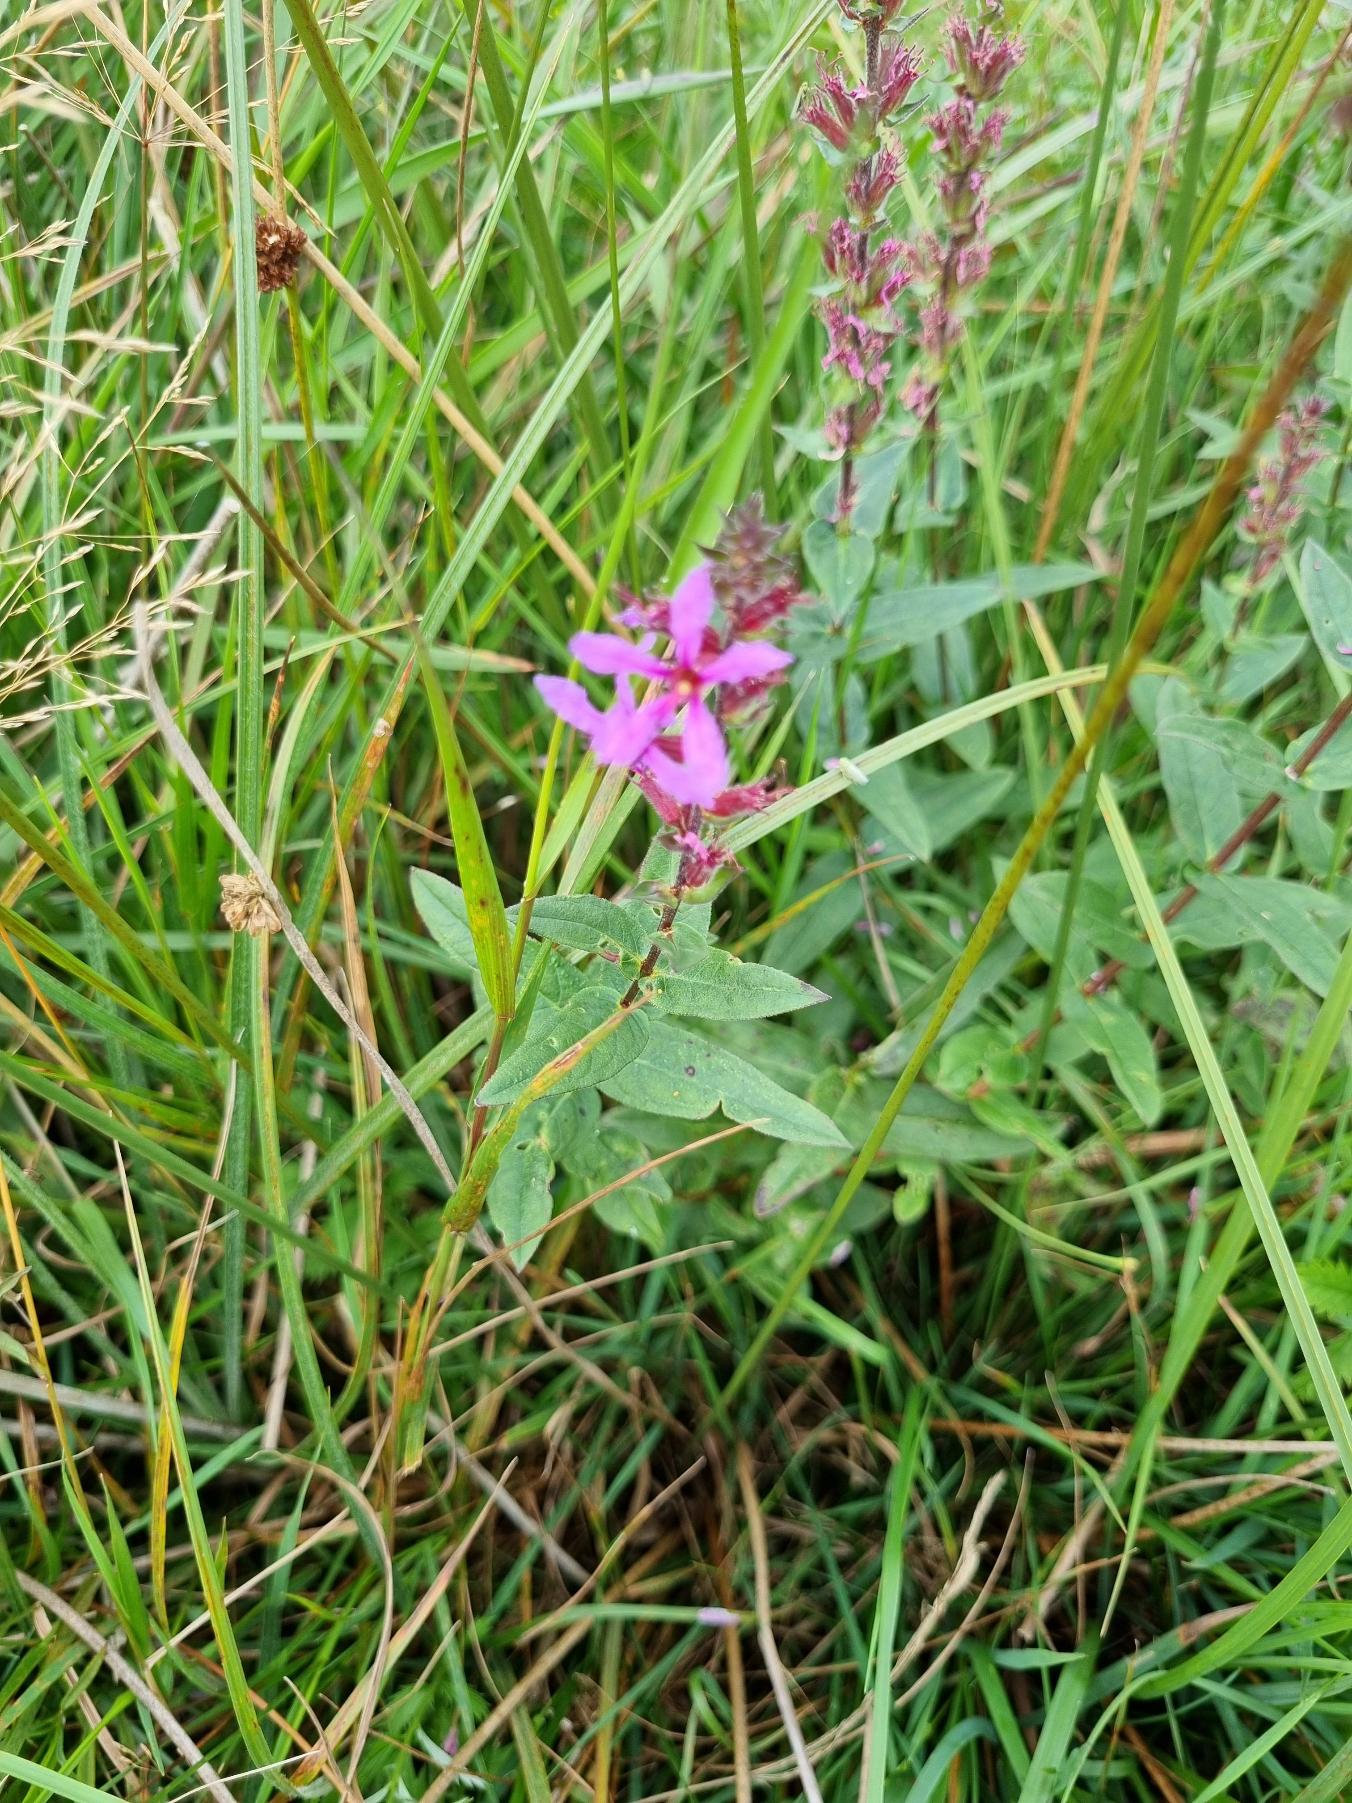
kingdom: Plantae
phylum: Tracheophyta
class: Magnoliopsida
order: Myrtales
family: Lythraceae
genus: Lythrum
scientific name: Lythrum salicaria
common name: Kattehale
